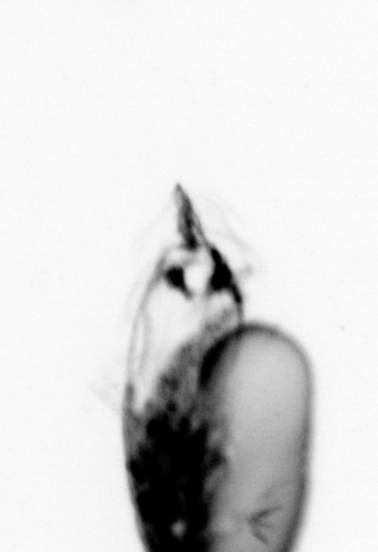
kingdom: Animalia
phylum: Arthropoda
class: Copepoda
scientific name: Copepoda
